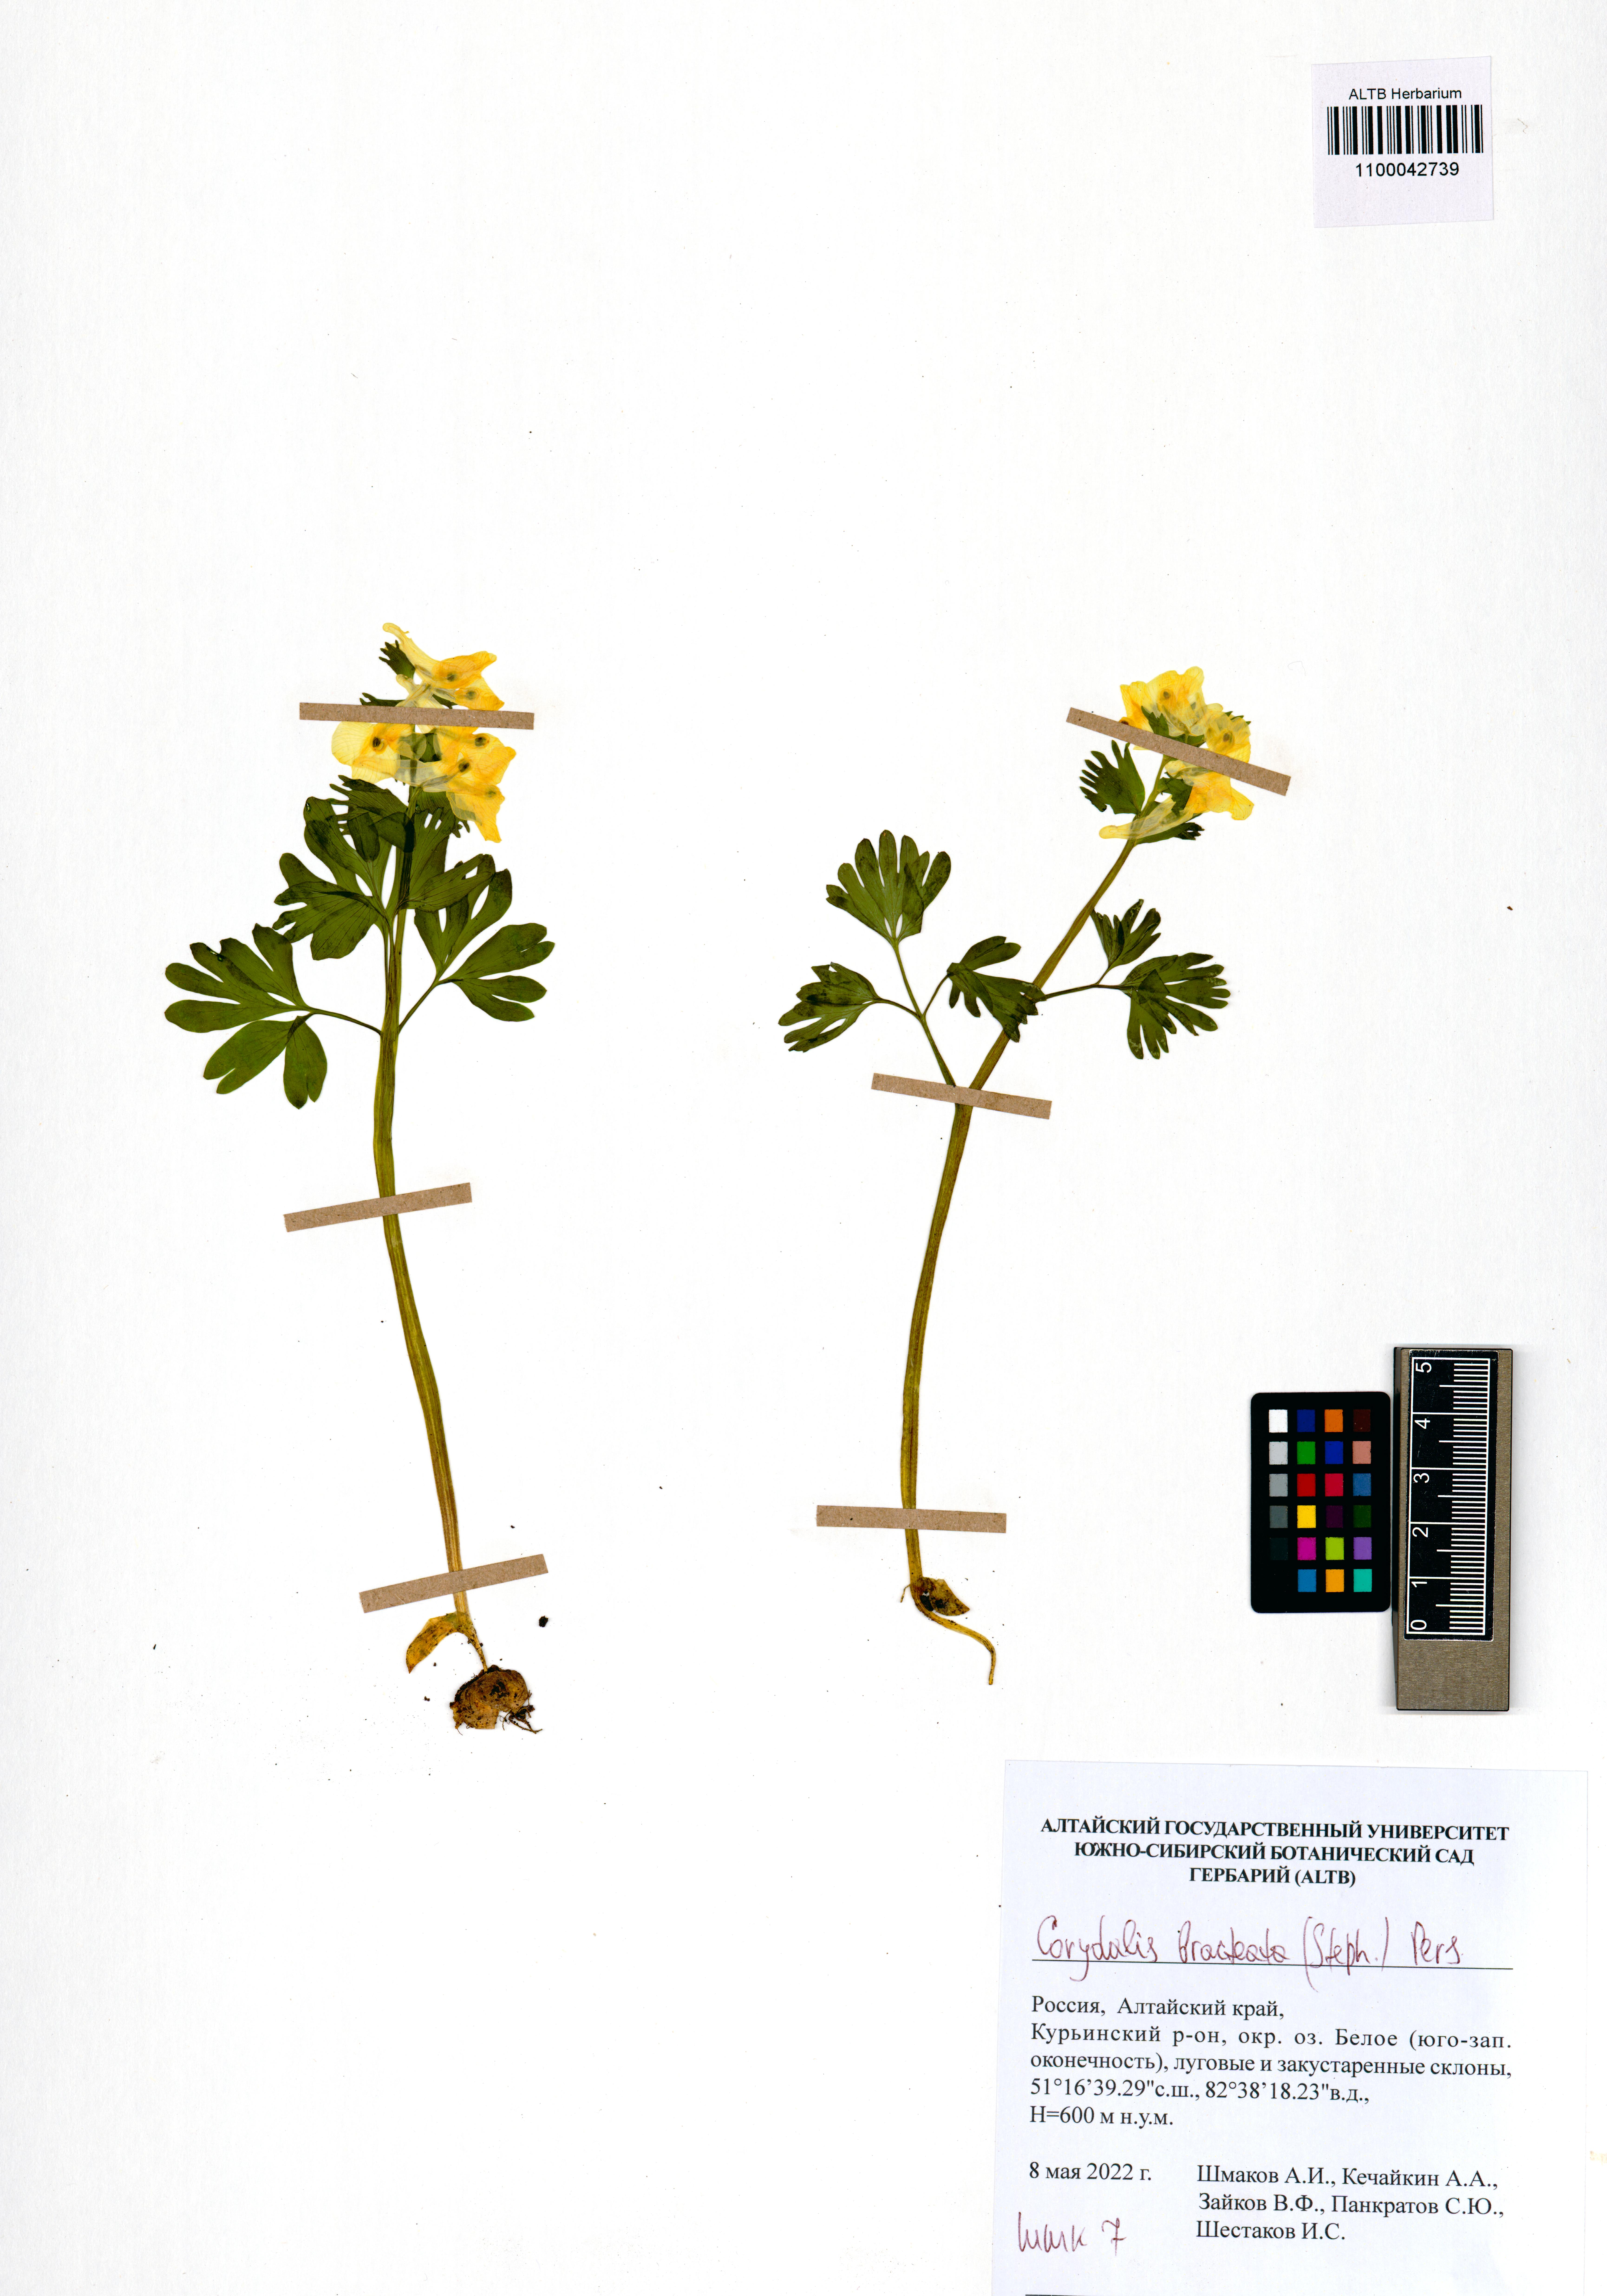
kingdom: Plantae
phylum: Tracheophyta
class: Magnoliopsida
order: Ranunculales
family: Papaveraceae
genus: Corydalis
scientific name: Corydalis bracteata
